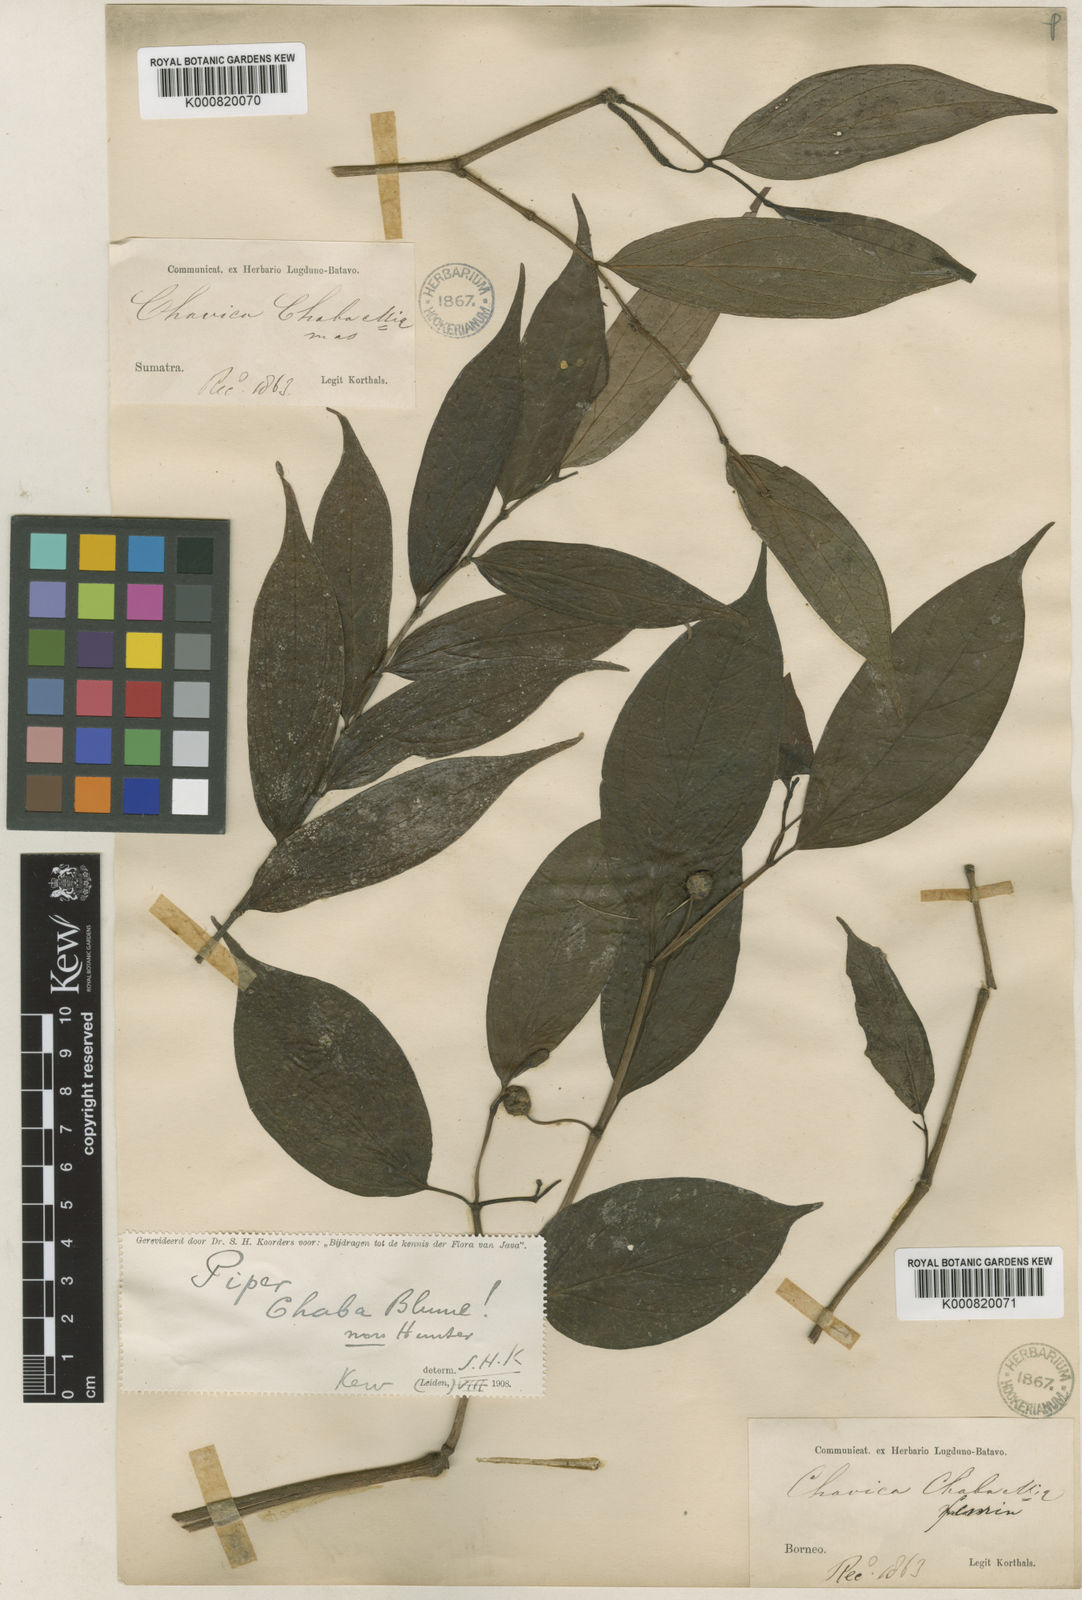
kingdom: Plantae
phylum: Tracheophyta
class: Magnoliopsida
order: Piperales
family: Piperaceae
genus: Piper
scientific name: Piper chaba
